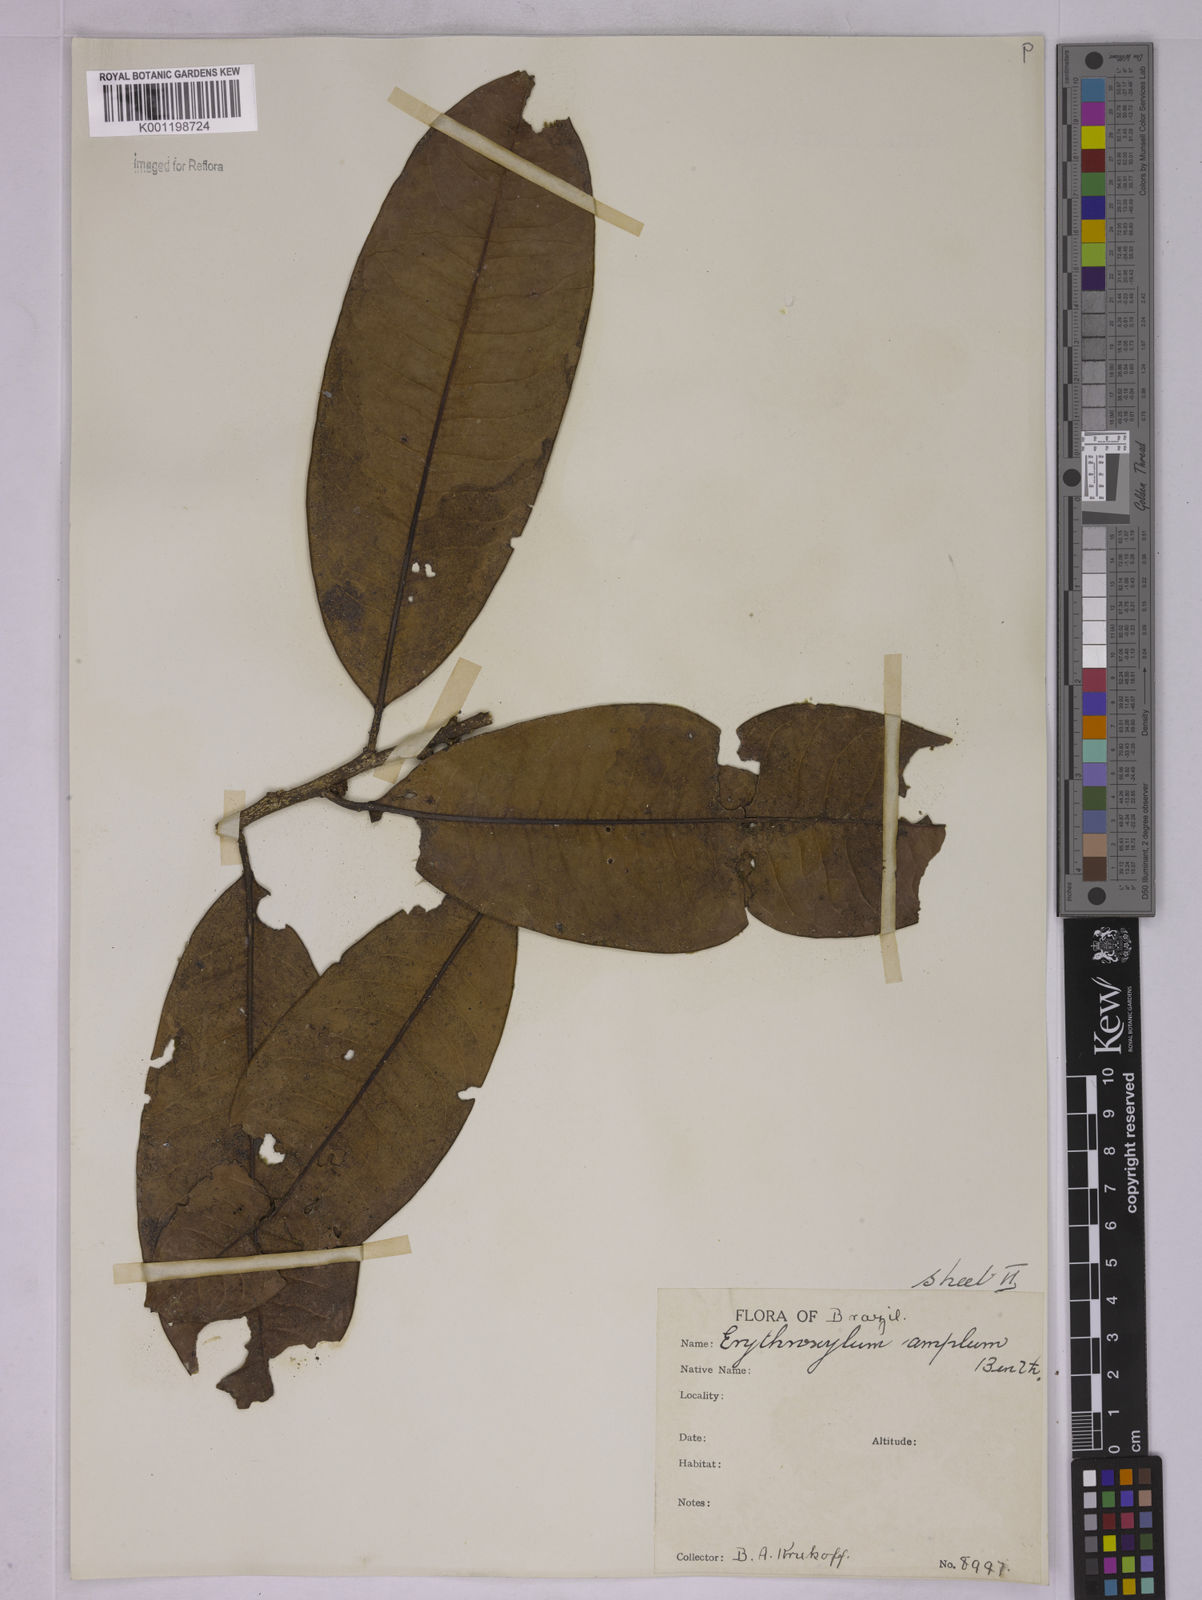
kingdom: Plantae
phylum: Tracheophyta
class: Magnoliopsida
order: Malpighiales
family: Erythroxylaceae
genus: Erythroxylum
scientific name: Erythroxylum amplum
